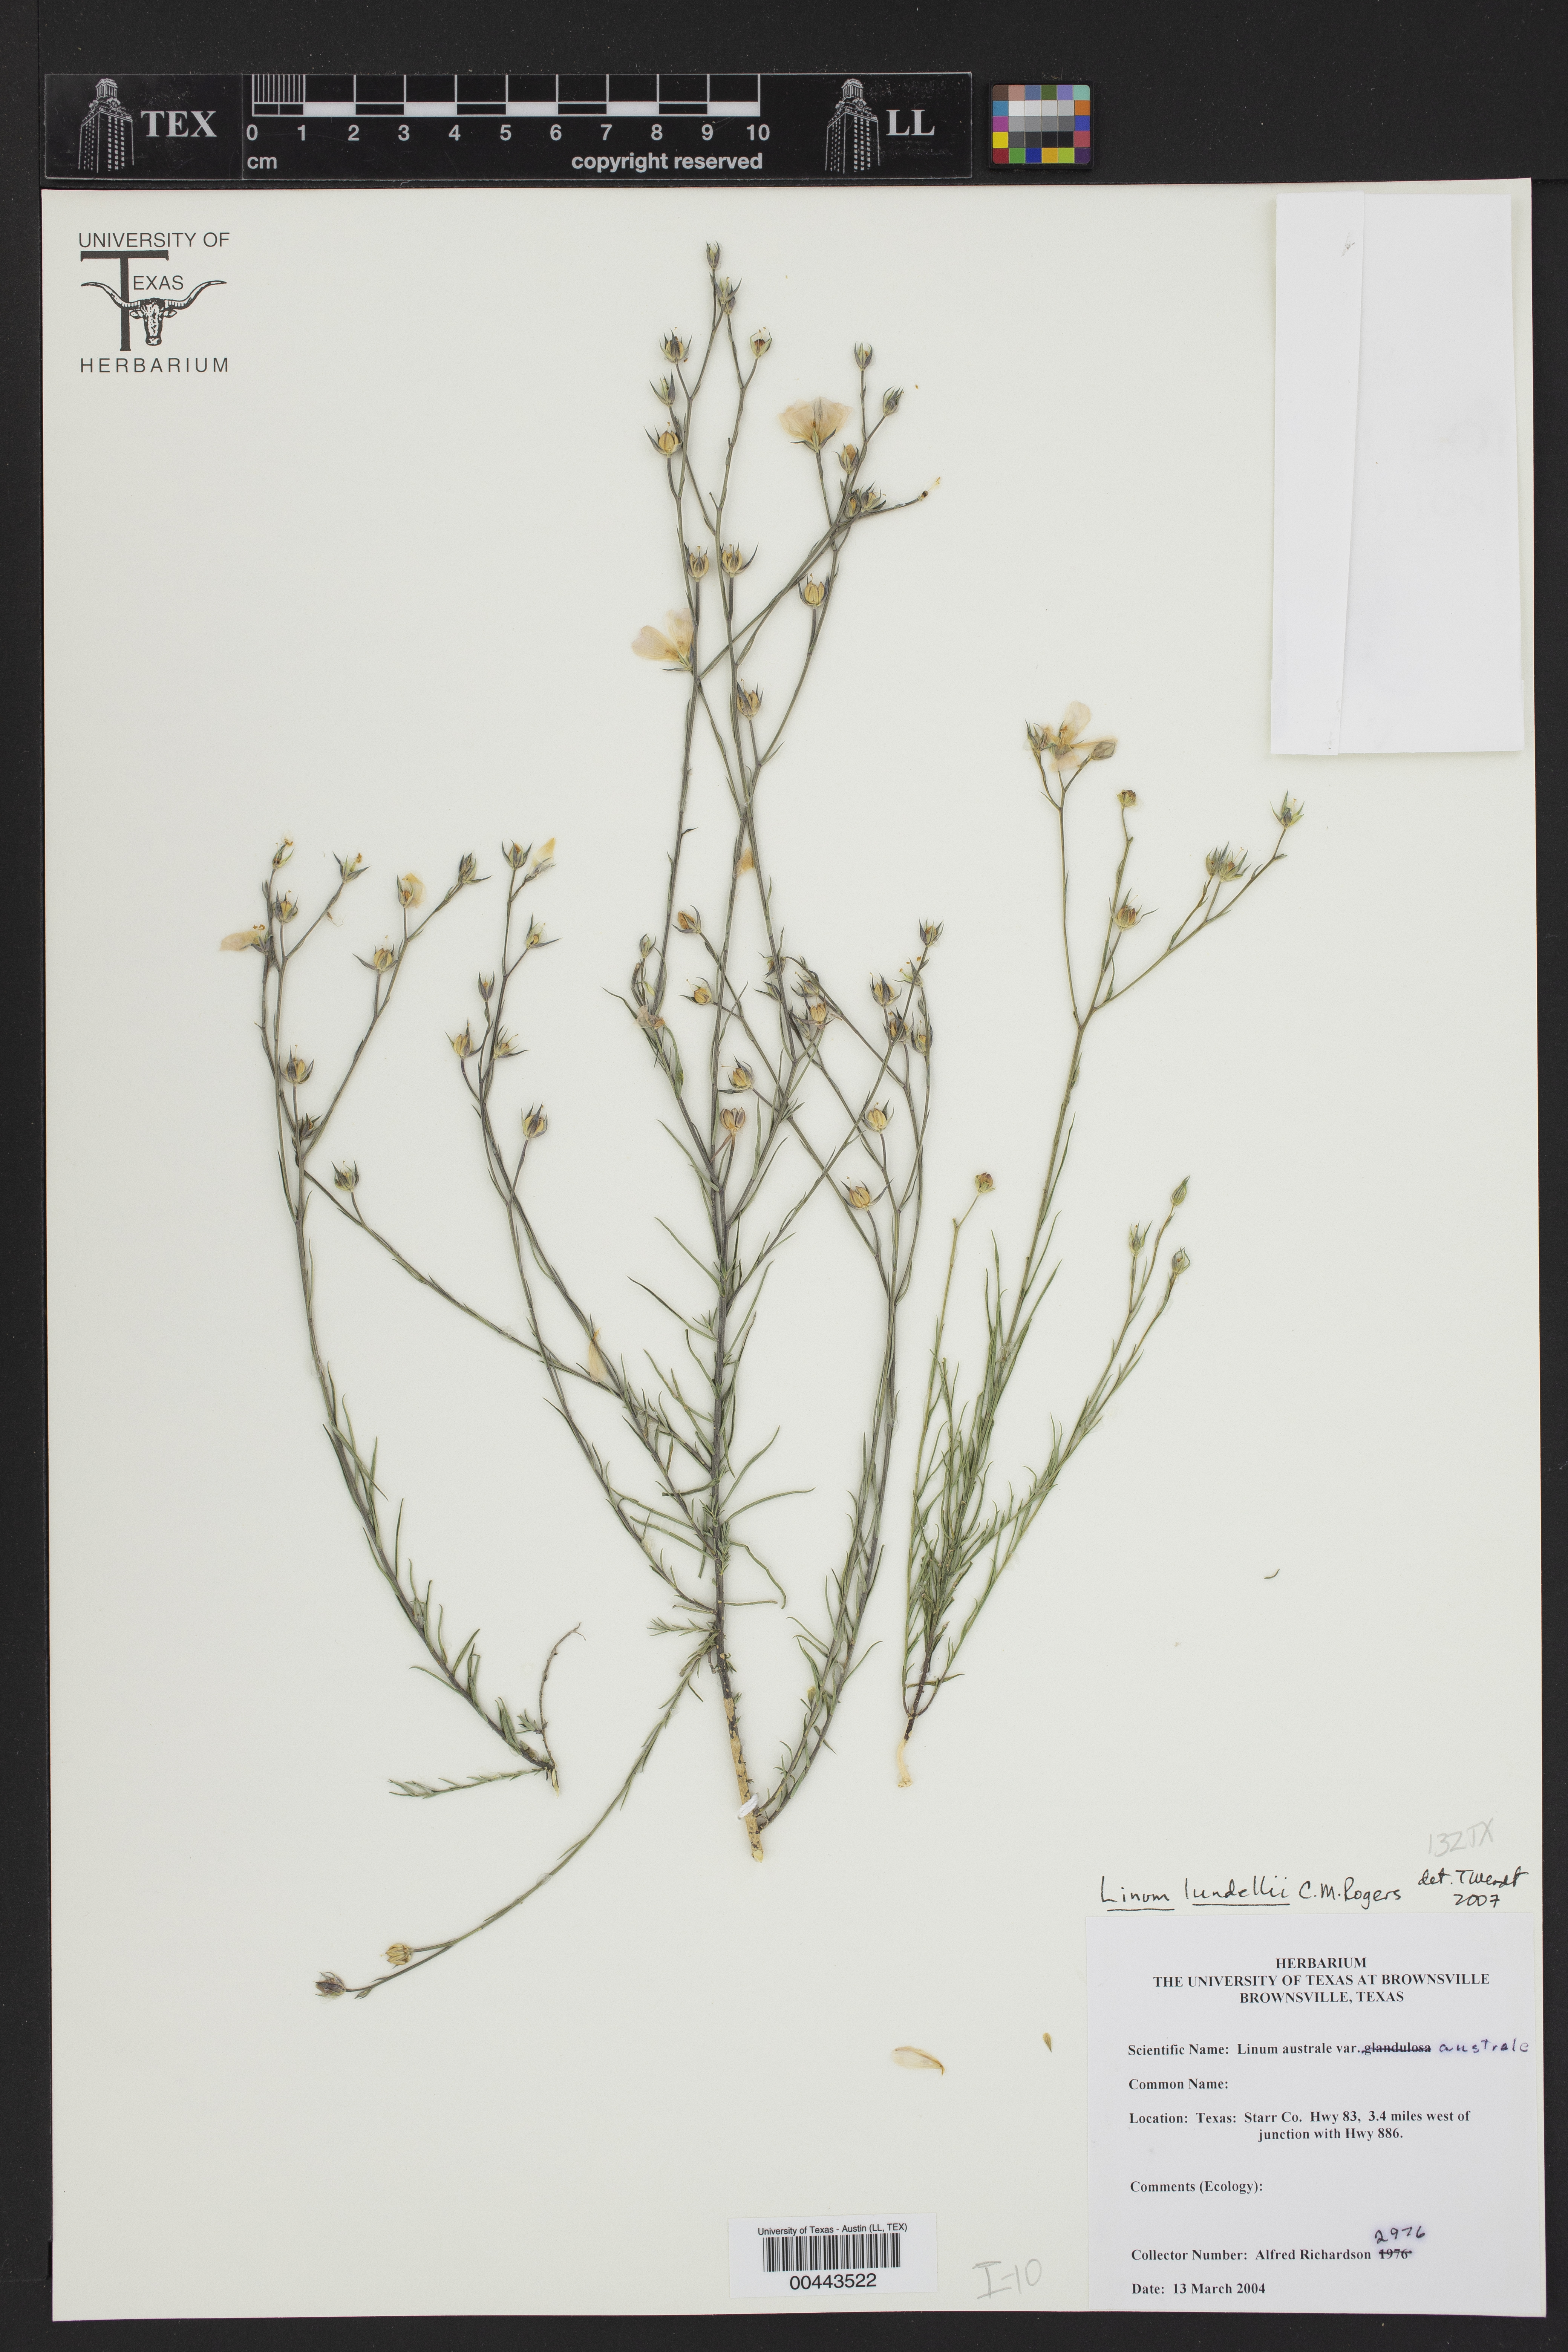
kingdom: Plantae
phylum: Tracheophyta
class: Magnoliopsida
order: Malpighiales
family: Linaceae
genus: Linum
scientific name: Linum lundellii
